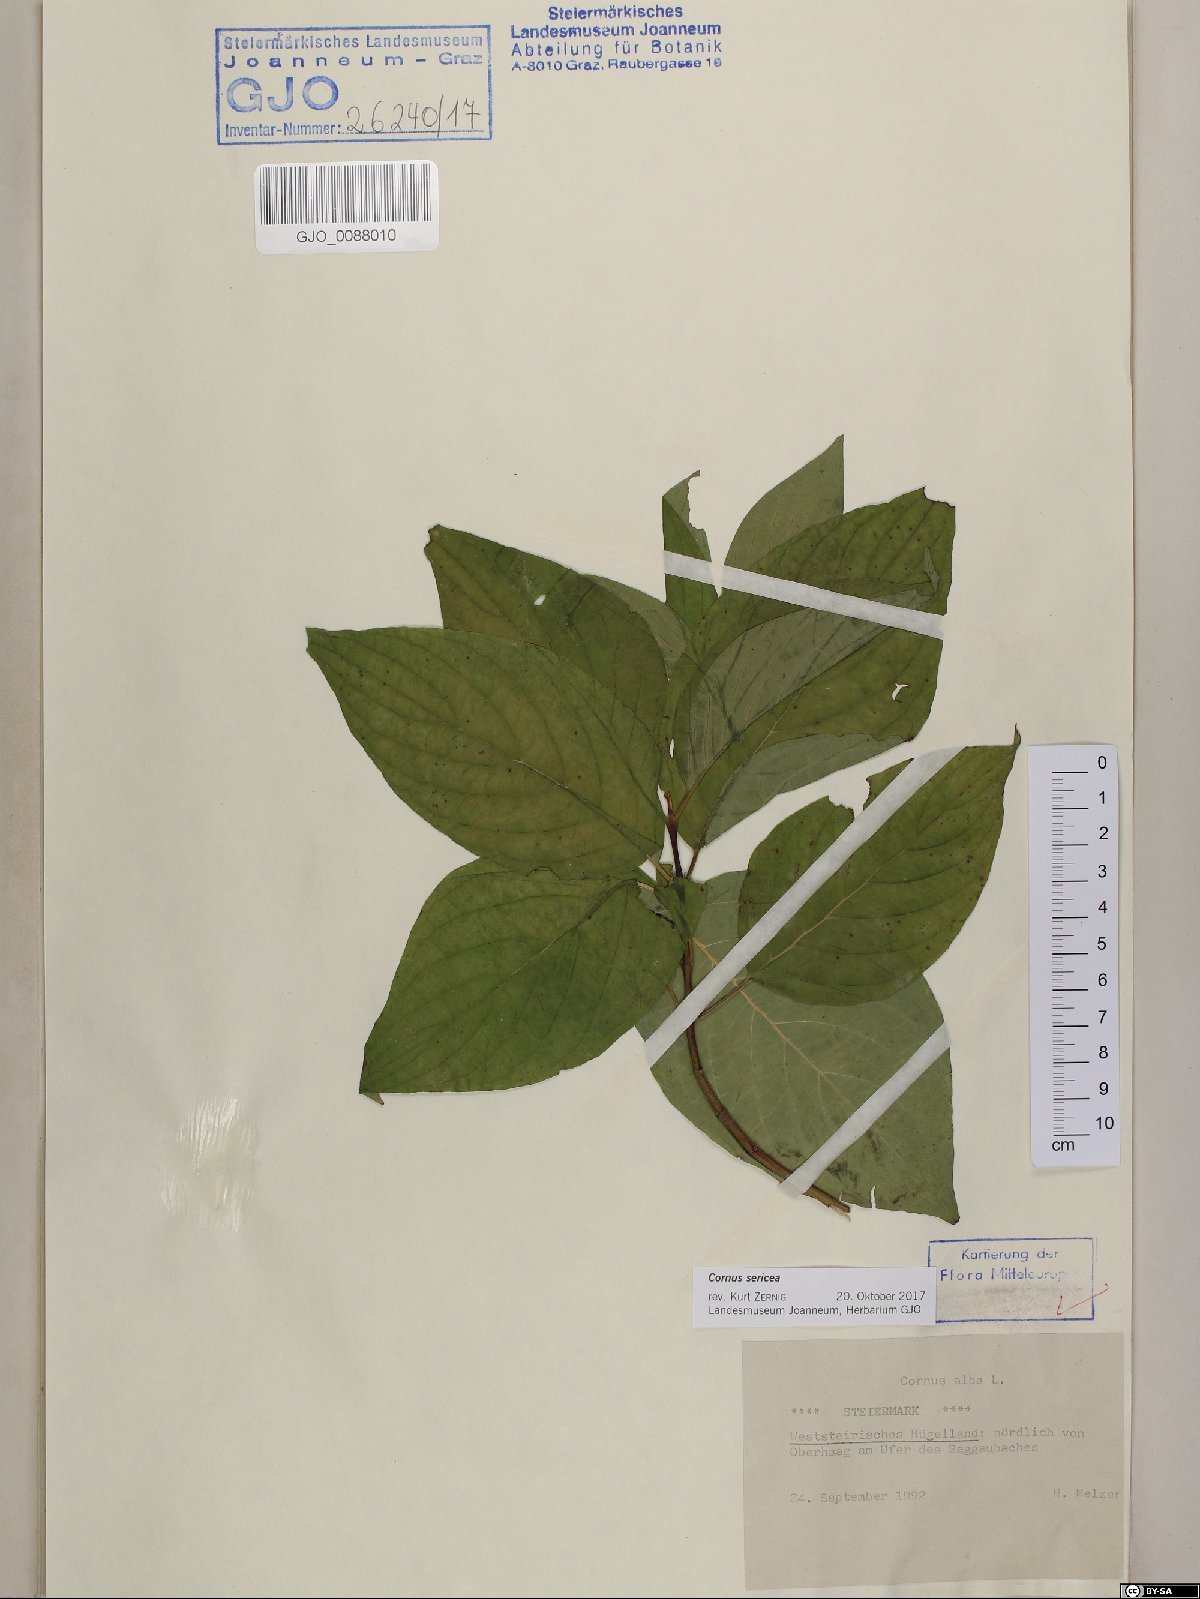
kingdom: Plantae
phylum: Tracheophyta
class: Magnoliopsida
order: Cornales
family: Cornaceae
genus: Cornus
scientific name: Cornus sericea
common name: Red-osier dogwood
